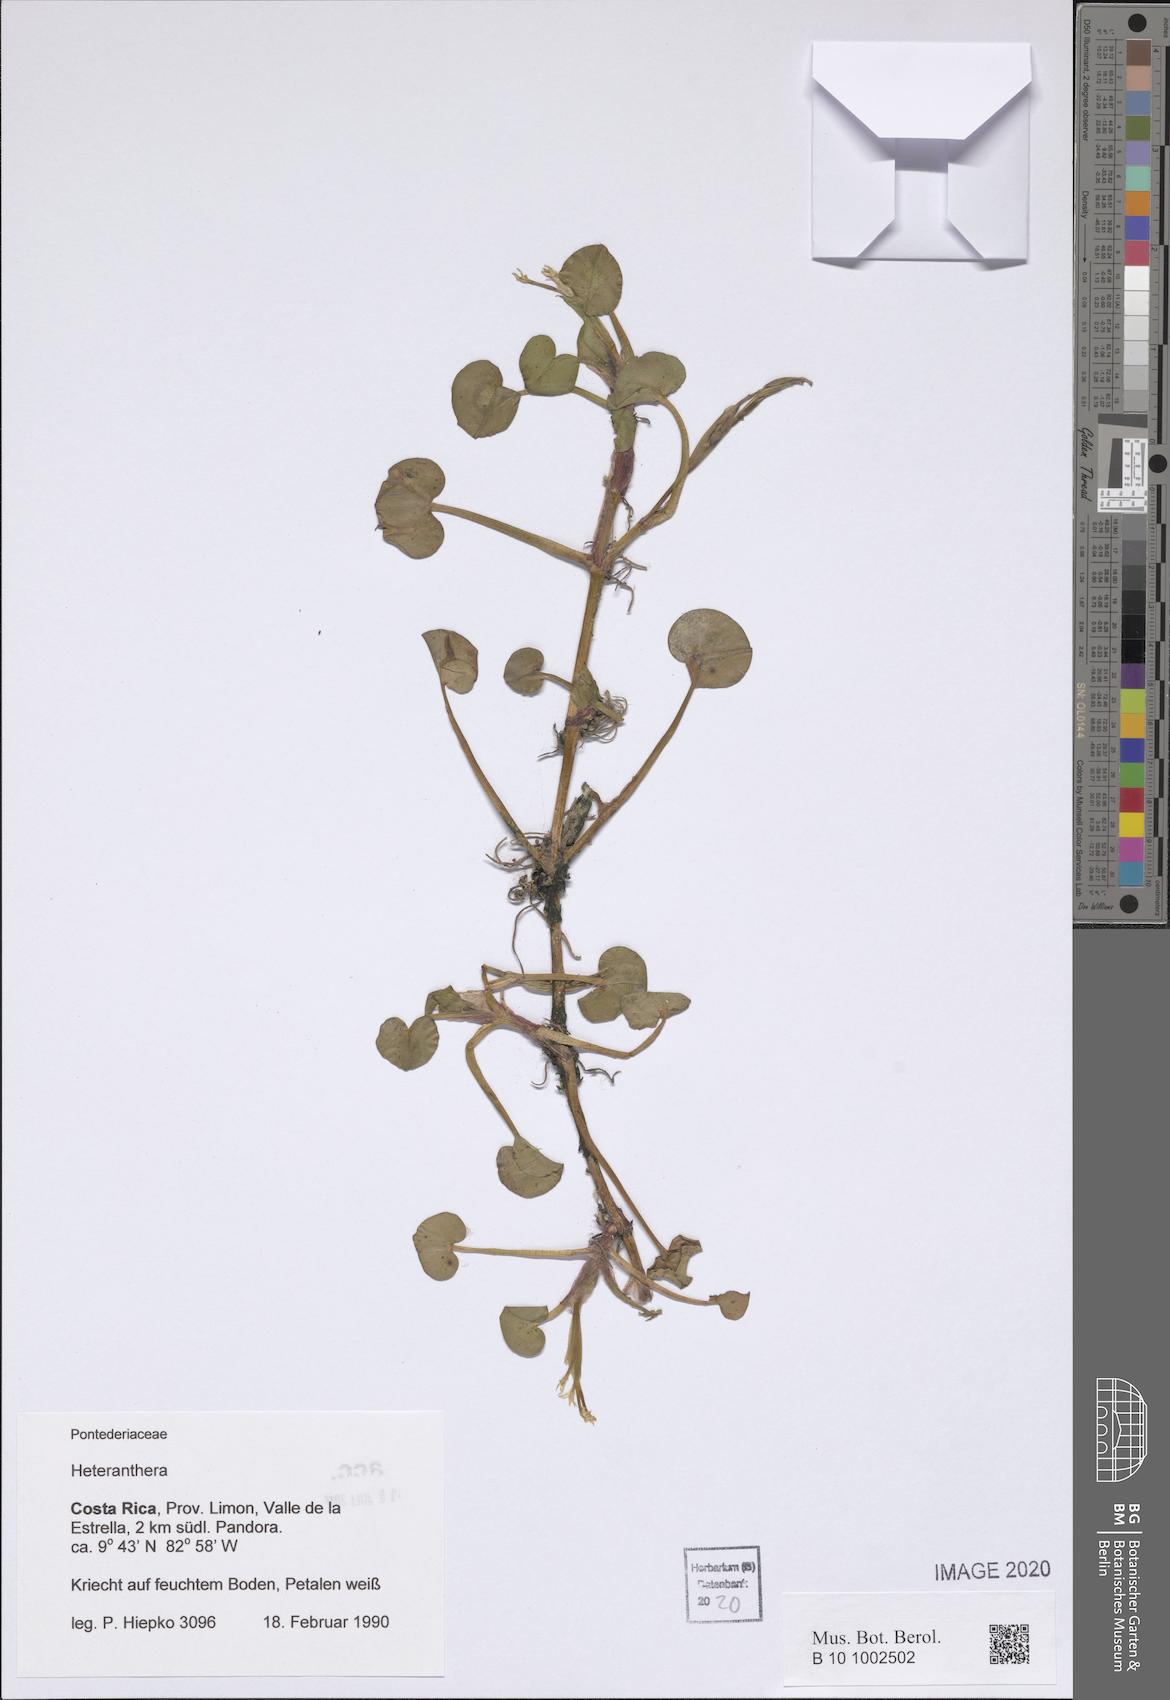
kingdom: Plantae
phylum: Tracheophyta
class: Liliopsida
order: Commelinales
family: Pontederiaceae
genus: Heteranthera
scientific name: Heteranthera
